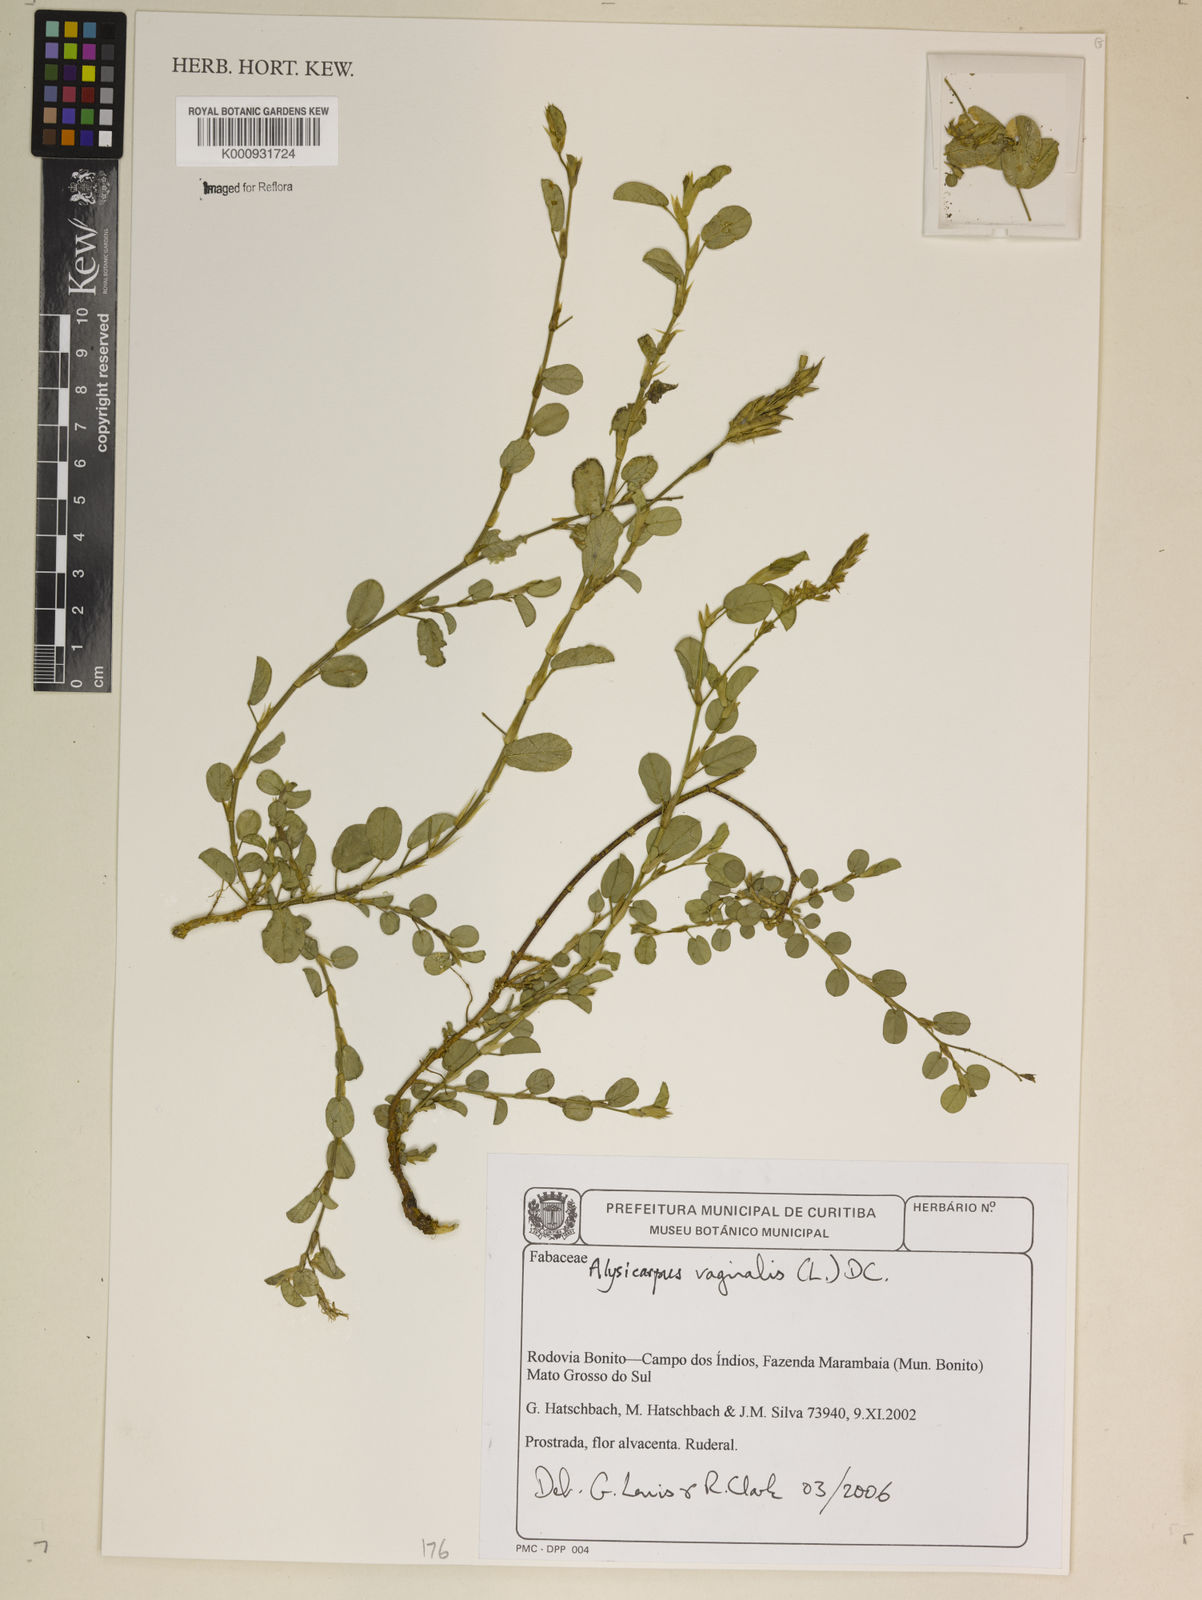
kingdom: Plantae
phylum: Tracheophyta
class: Magnoliopsida
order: Fabales
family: Fabaceae
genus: Alysicarpus
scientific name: Alysicarpus vaginalis
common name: White moneywort
